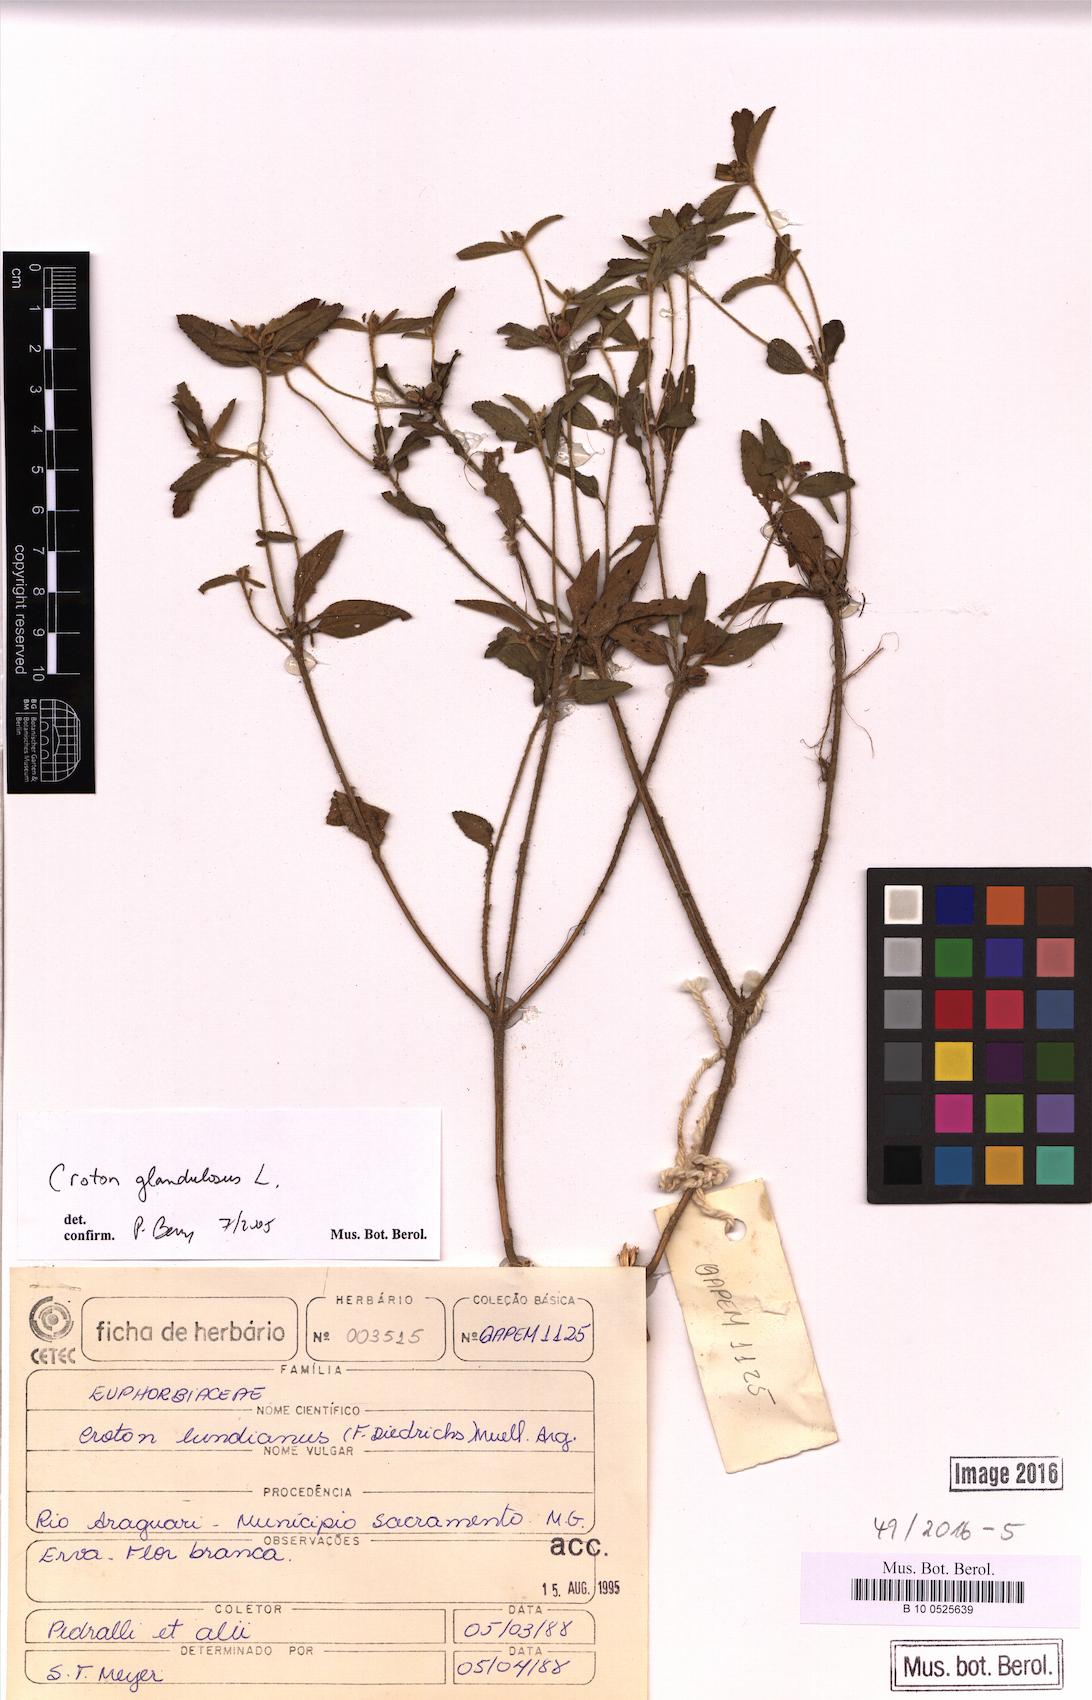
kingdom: Plantae
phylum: Tracheophyta
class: Magnoliopsida
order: Malpighiales
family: Euphorbiaceae
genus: Croton
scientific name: Croton glandulosus
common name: Tropic croton
